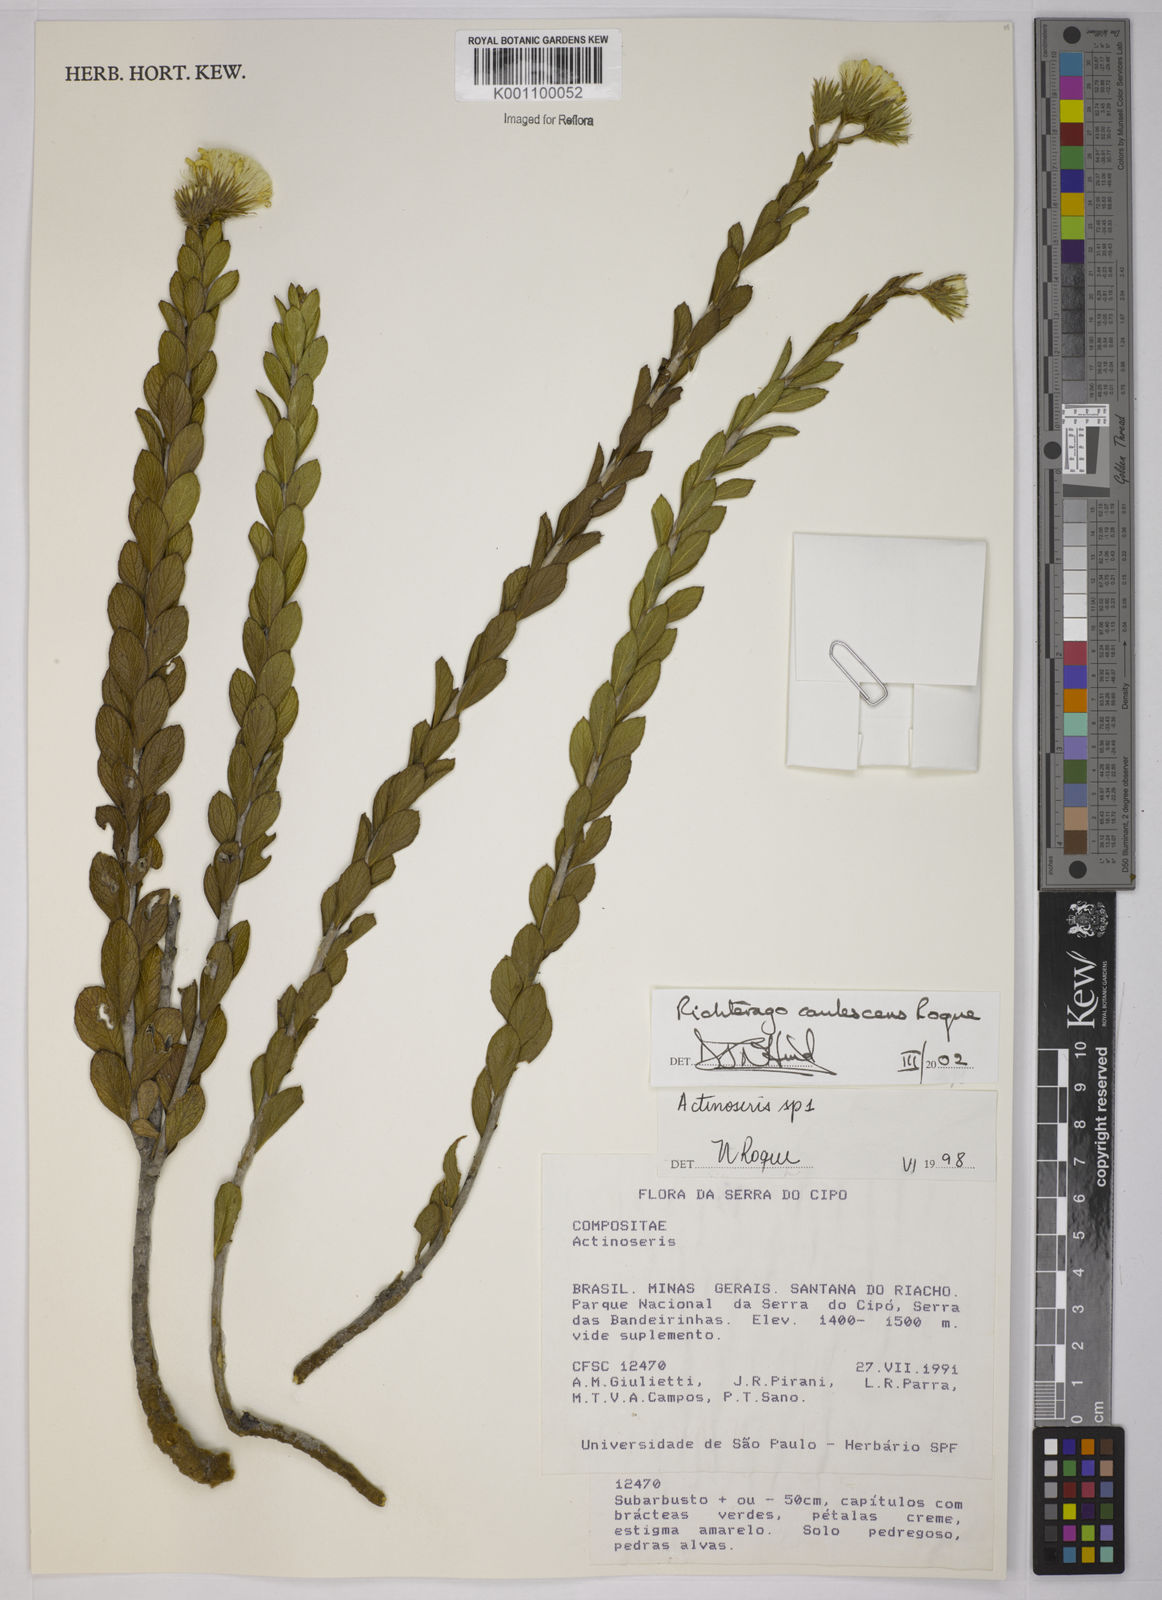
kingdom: Plantae
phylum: Tracheophyta
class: Magnoliopsida
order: Asterales
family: Asteraceae
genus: Richterago
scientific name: Richterago caulescens
